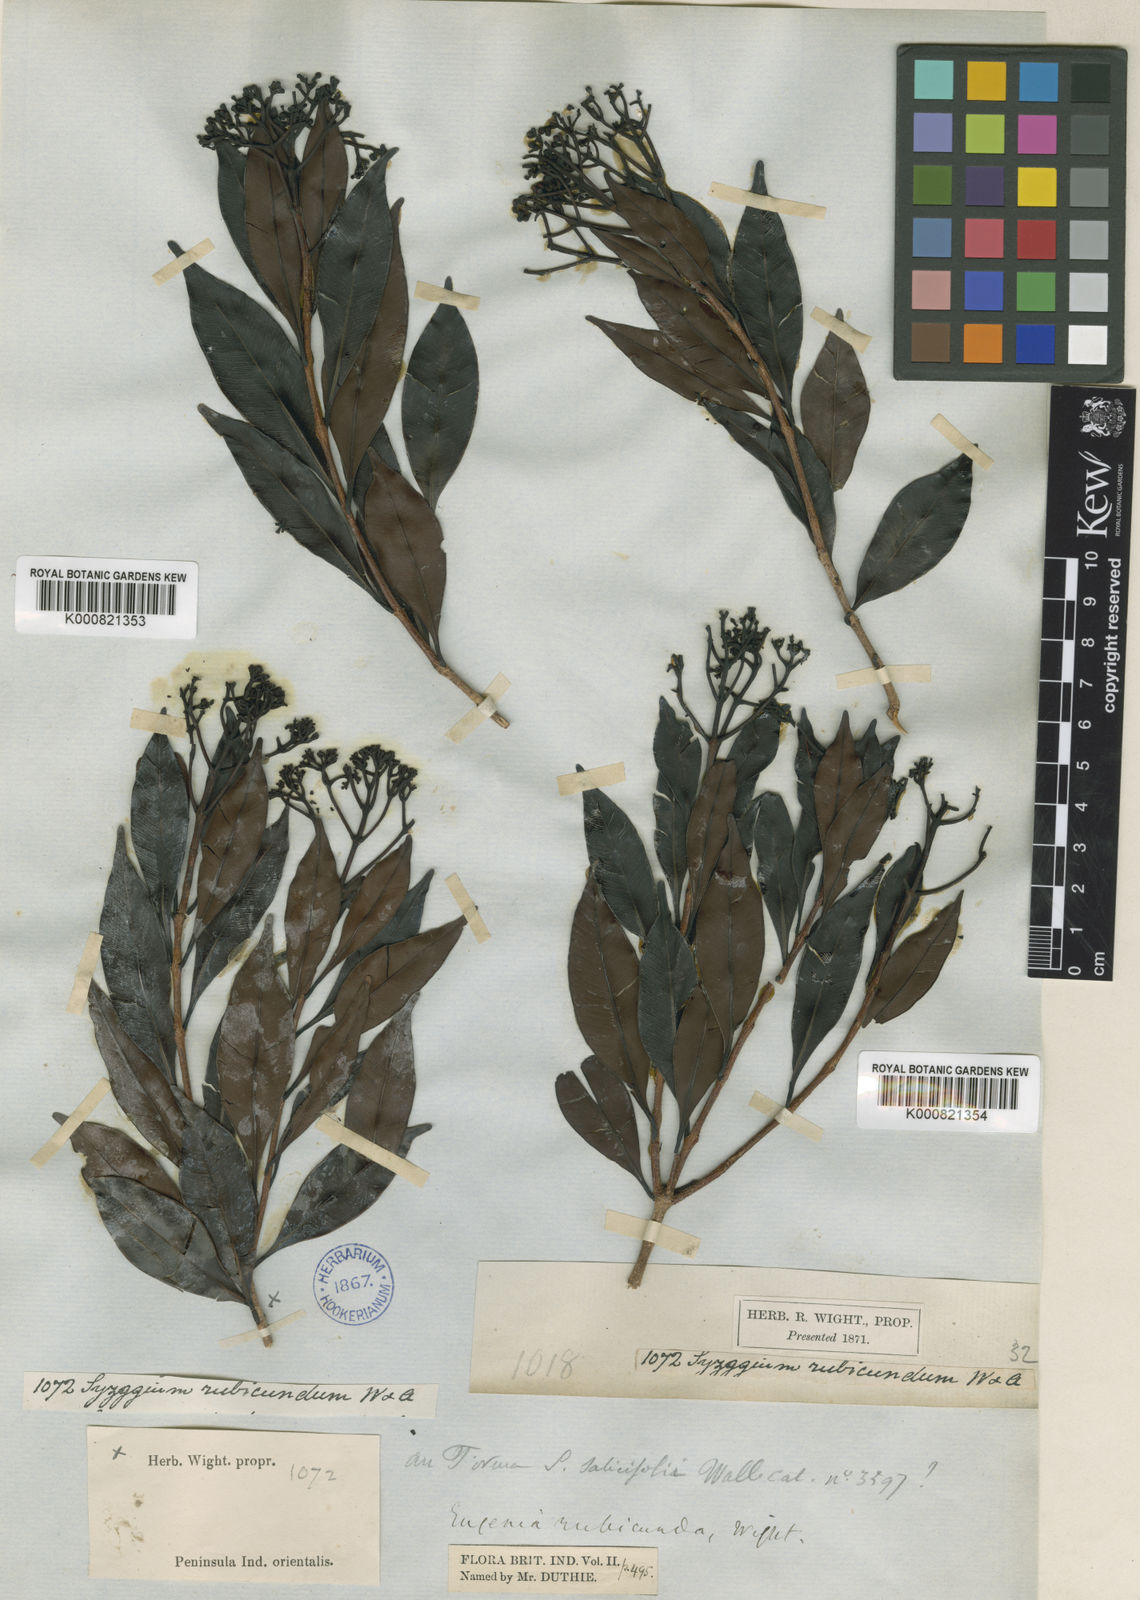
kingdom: Plantae
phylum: Tracheophyta
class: Magnoliopsida
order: Myrtales
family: Myrtaceae
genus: Syzygium
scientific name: Syzygium spathulatum
